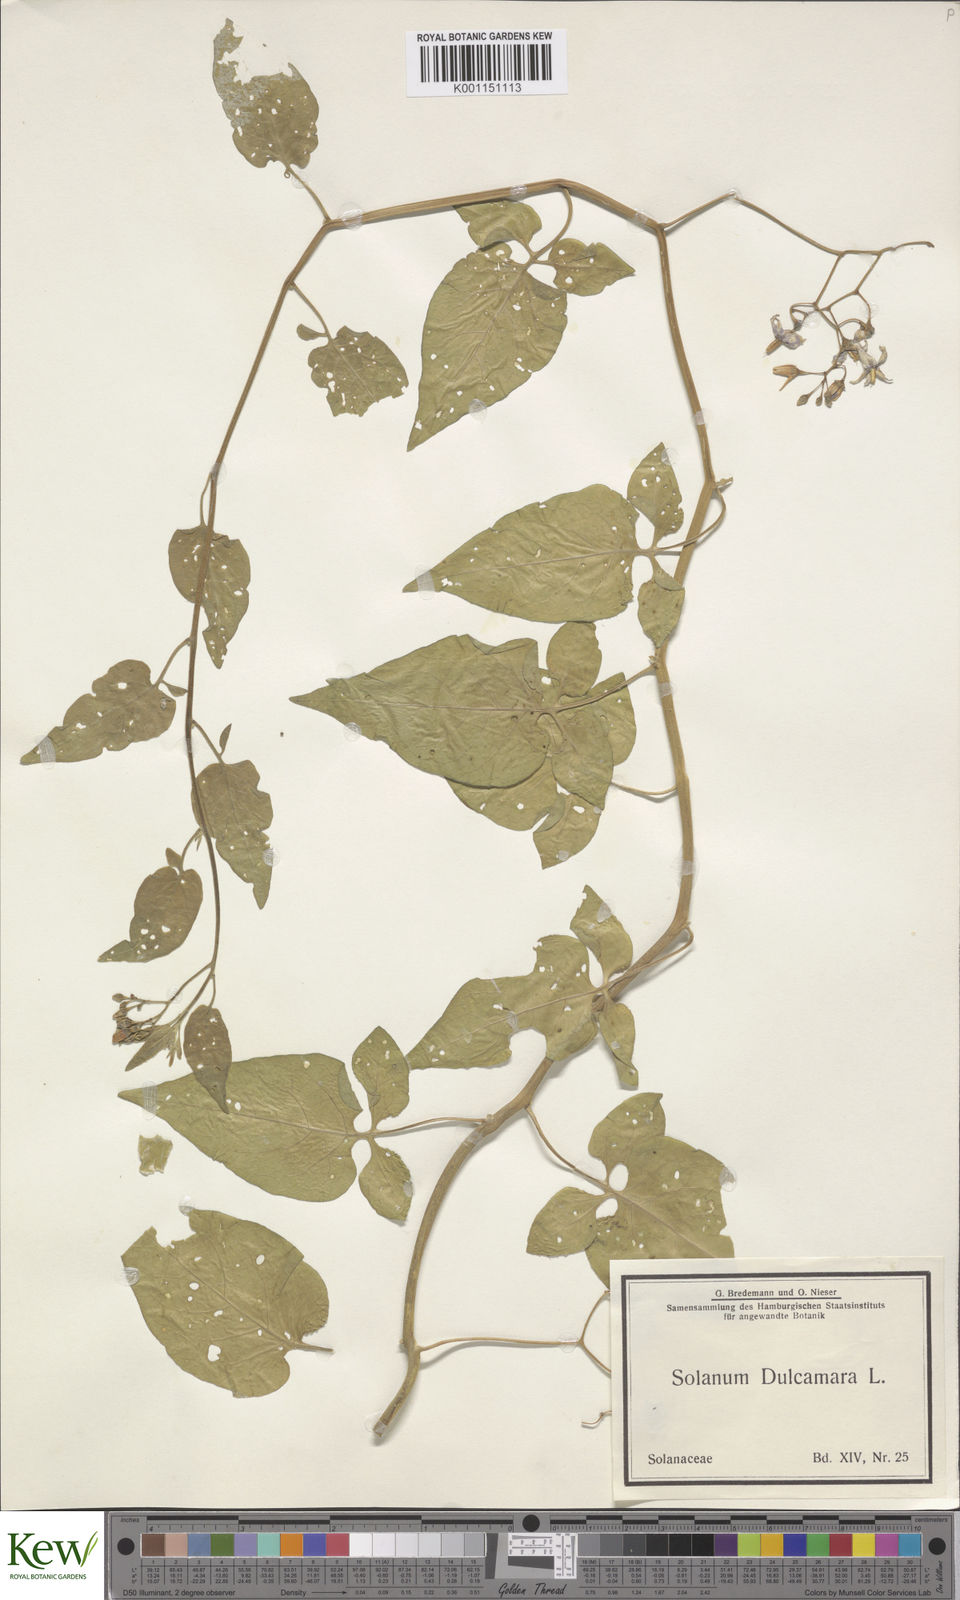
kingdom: Plantae
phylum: Tracheophyta
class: Magnoliopsida
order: Solanales
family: Solanaceae
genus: Solanum
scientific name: Solanum dulcamara
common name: Climbing nightshade
